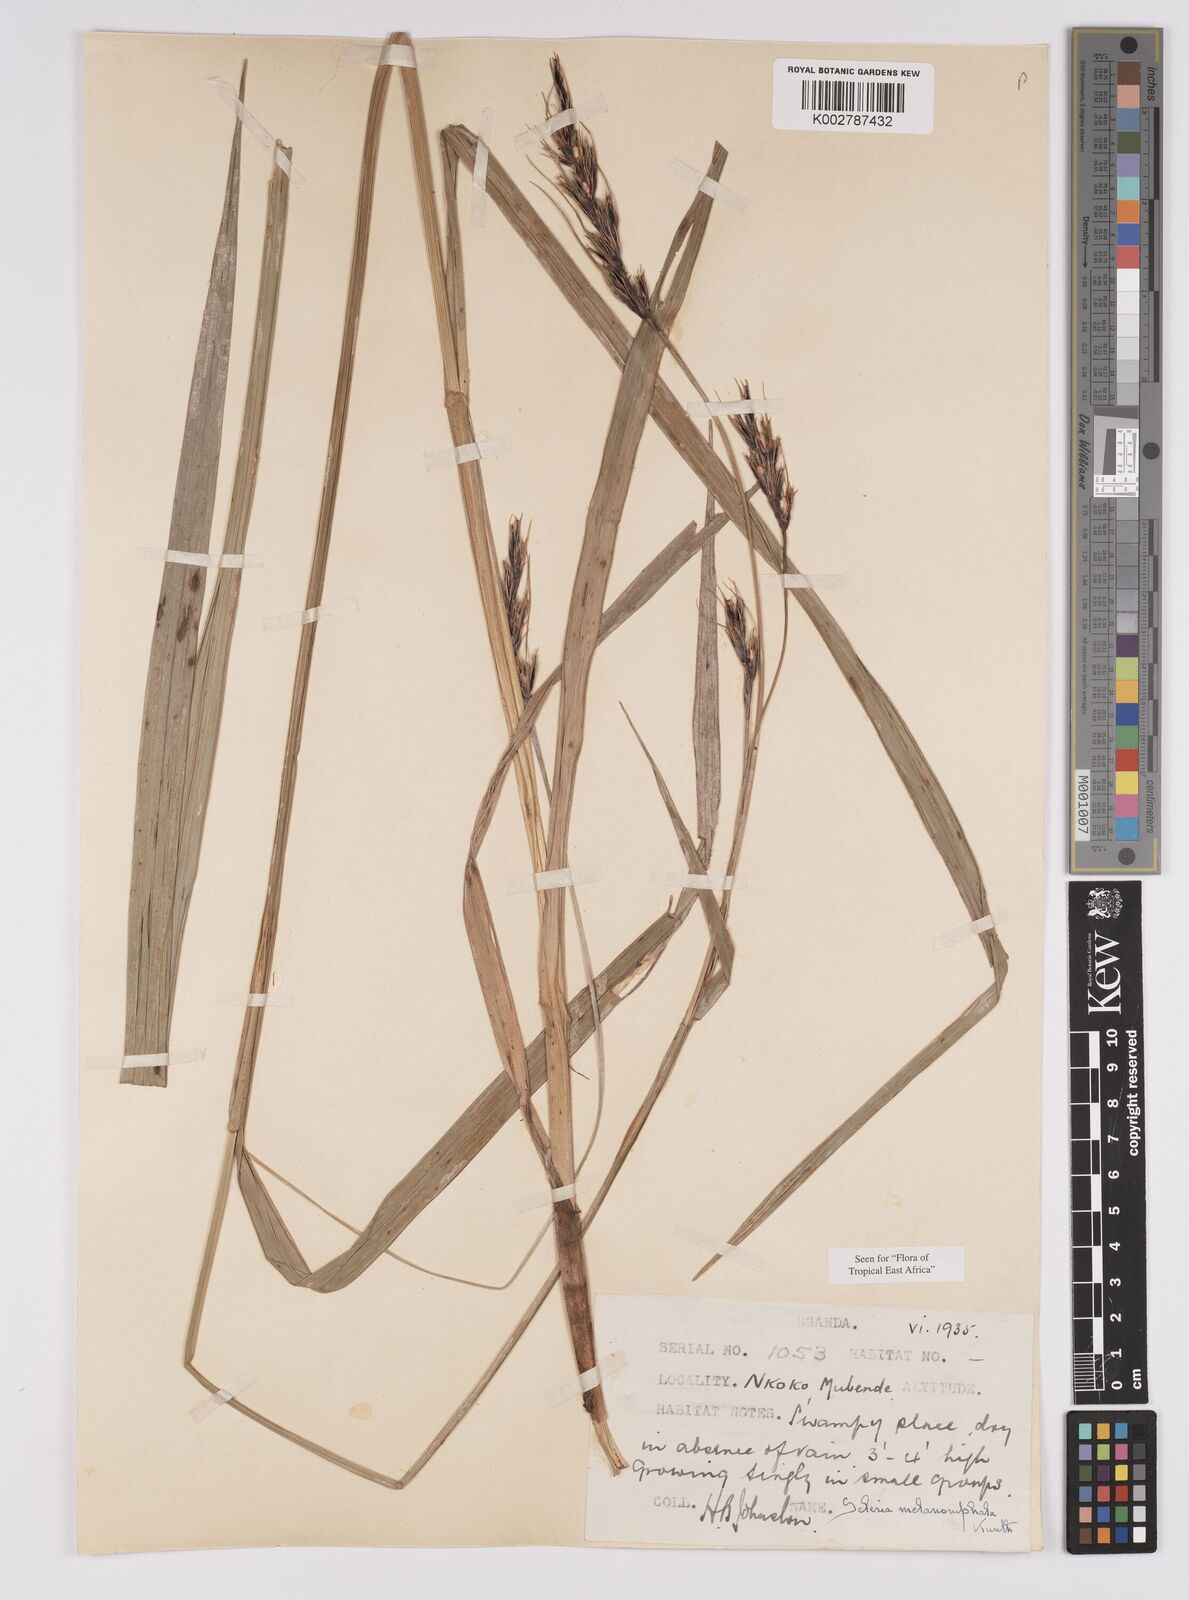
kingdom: Plantae
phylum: Tracheophyta
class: Liliopsida
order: Poales
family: Cyperaceae
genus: Scleria
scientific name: Scleria melanomphala
